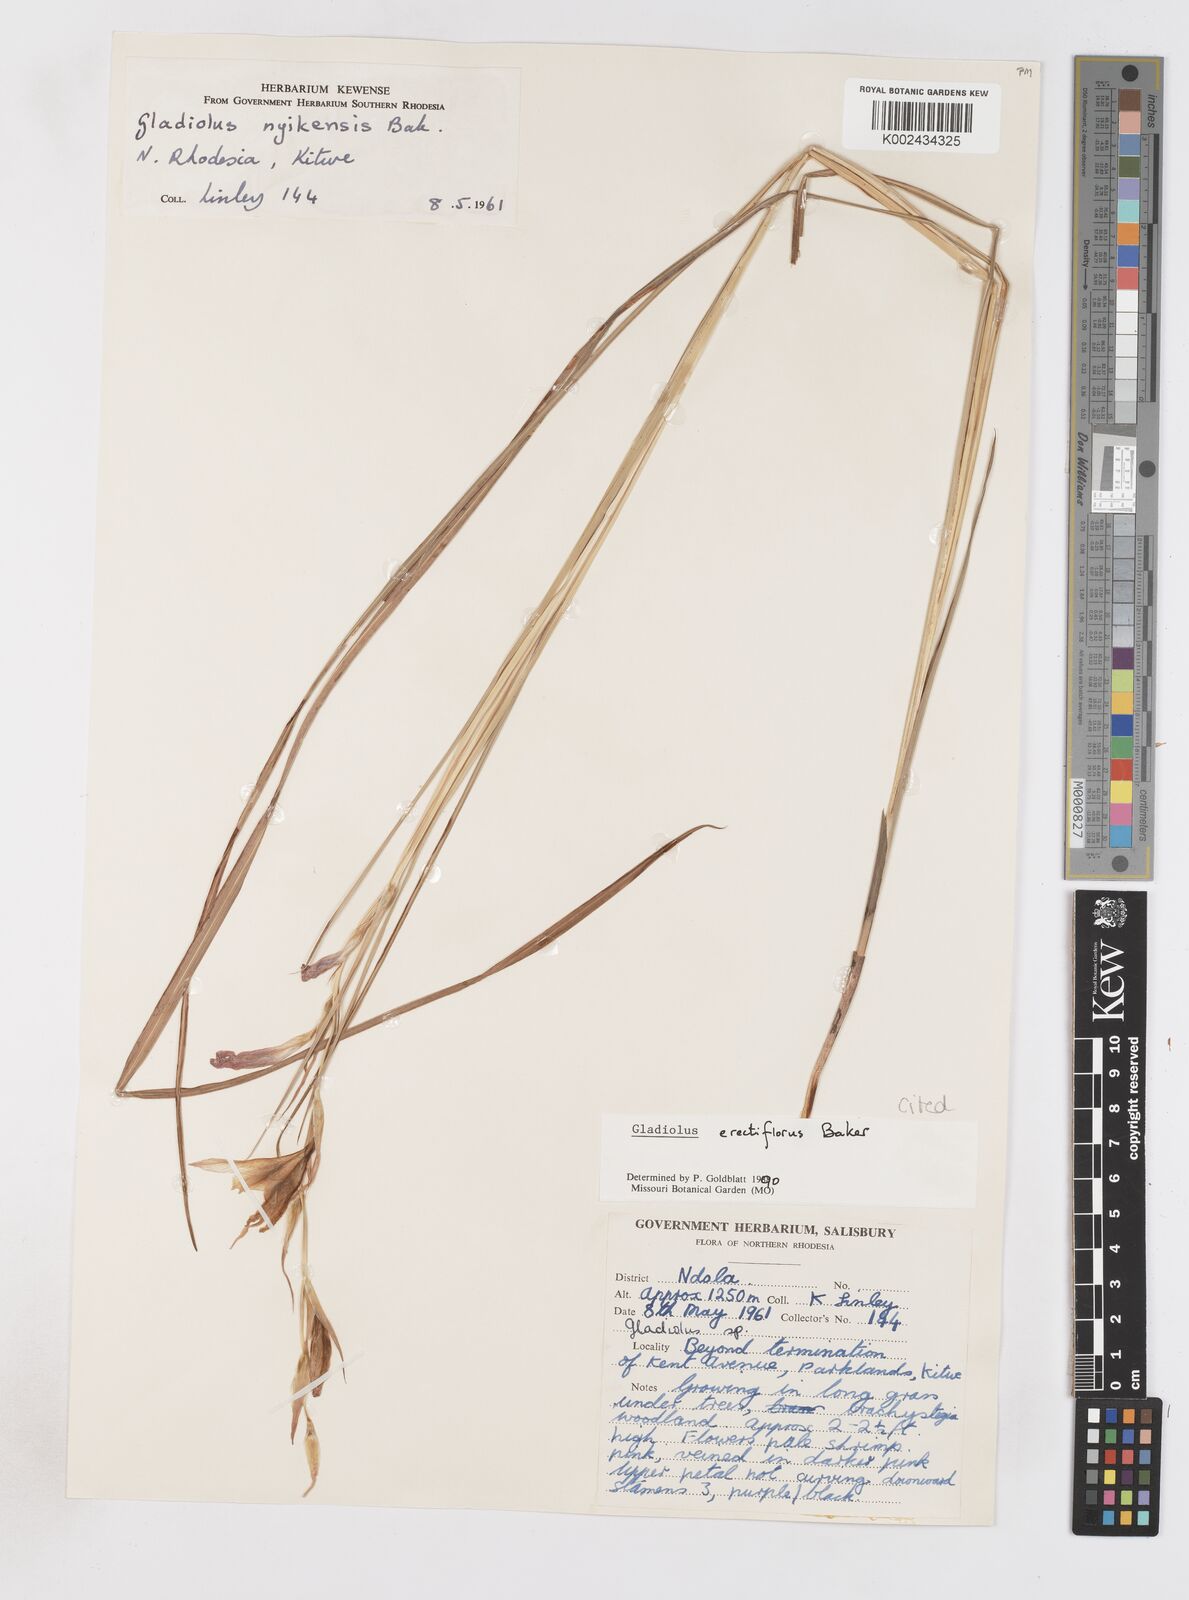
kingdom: Plantae
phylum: Tracheophyta
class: Liliopsida
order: Asparagales
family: Iridaceae
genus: Gladiolus
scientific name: Gladiolus erectiflorus
